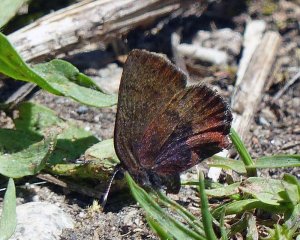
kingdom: Animalia
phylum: Arthropoda
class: Insecta
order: Lepidoptera
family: Lycaenidae
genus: Incisalia
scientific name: Incisalia irioides
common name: Brown Elfin
